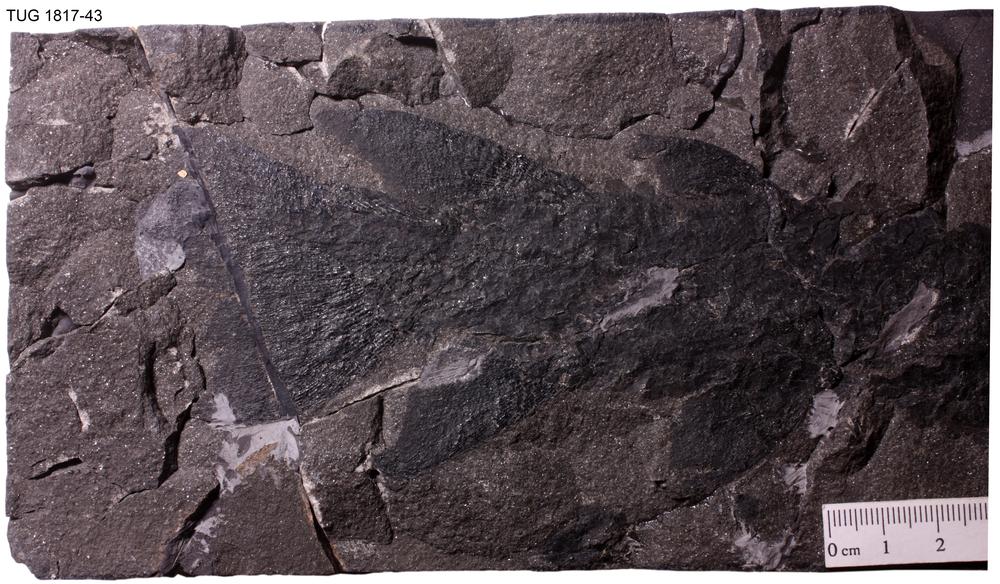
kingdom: Animalia
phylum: Chordata
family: Eusthenopteridae
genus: Tristichopterus
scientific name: Tristichopterus alatus
